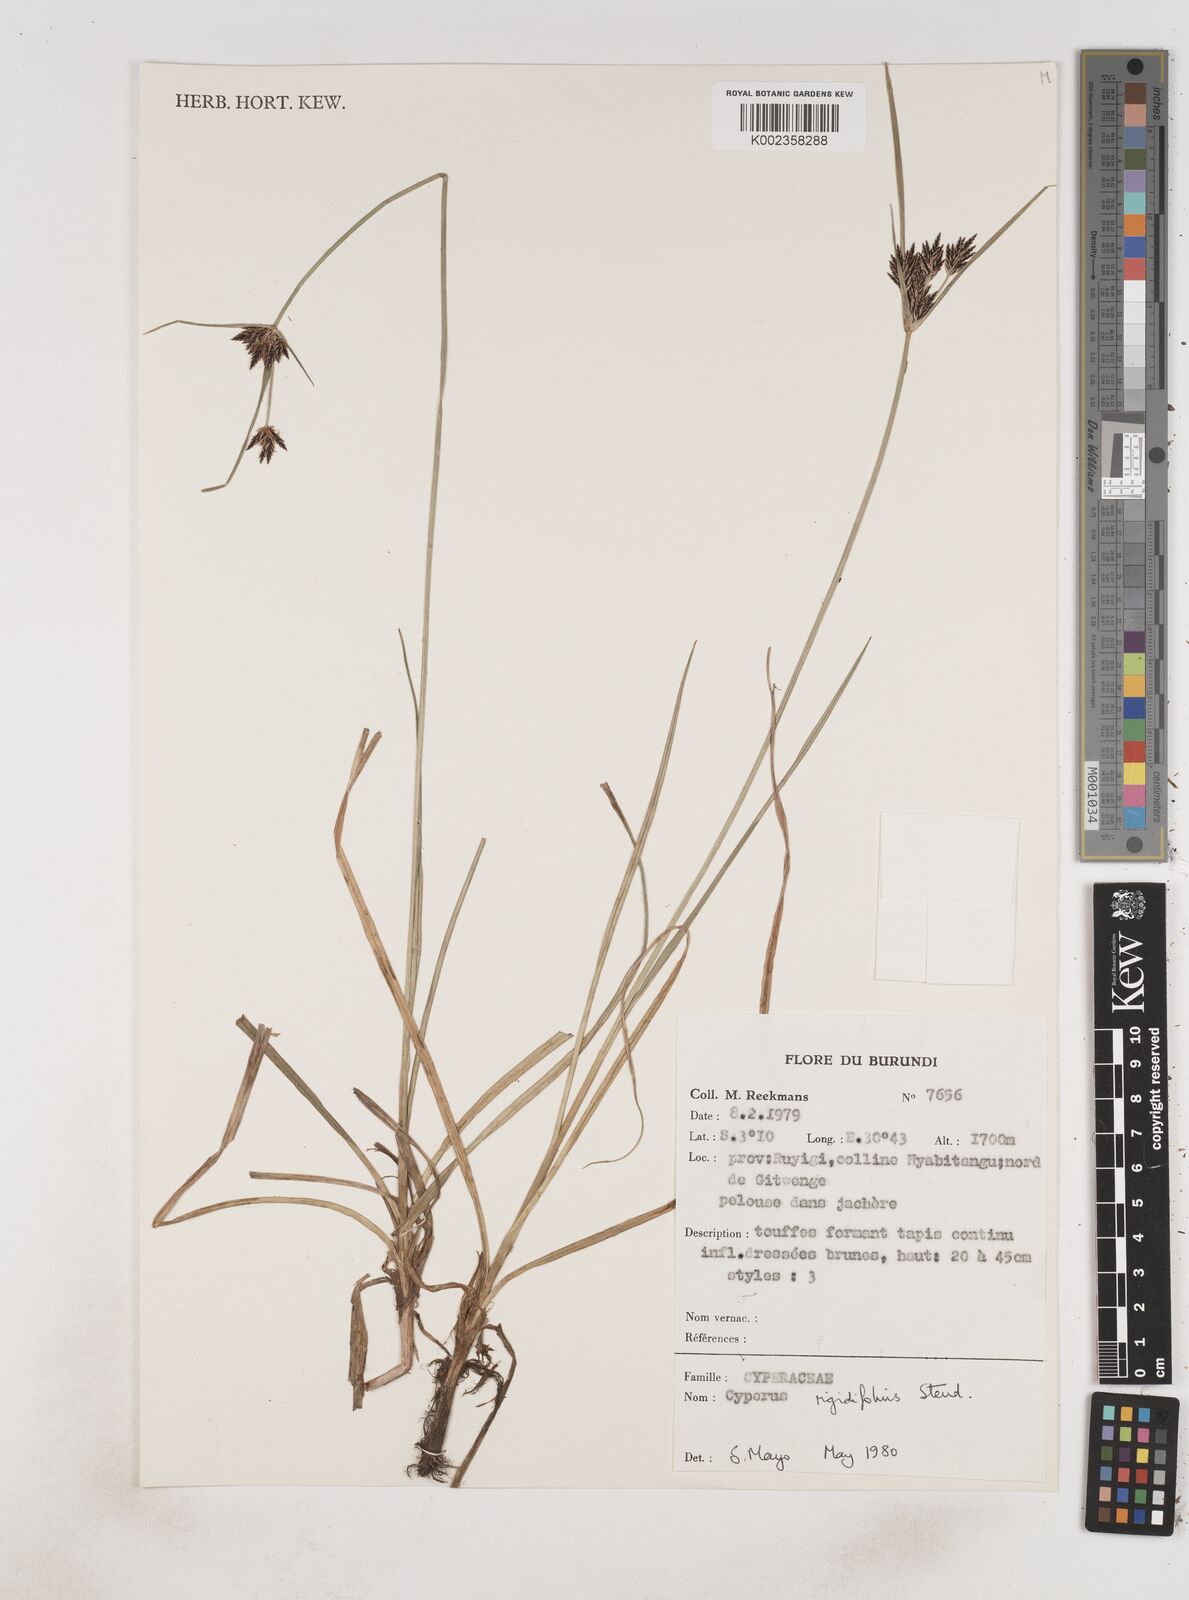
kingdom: Plantae
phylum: Tracheophyta
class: Liliopsida
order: Poales
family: Cyperaceae
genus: Cyperus
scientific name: Cyperus rigidifolius
